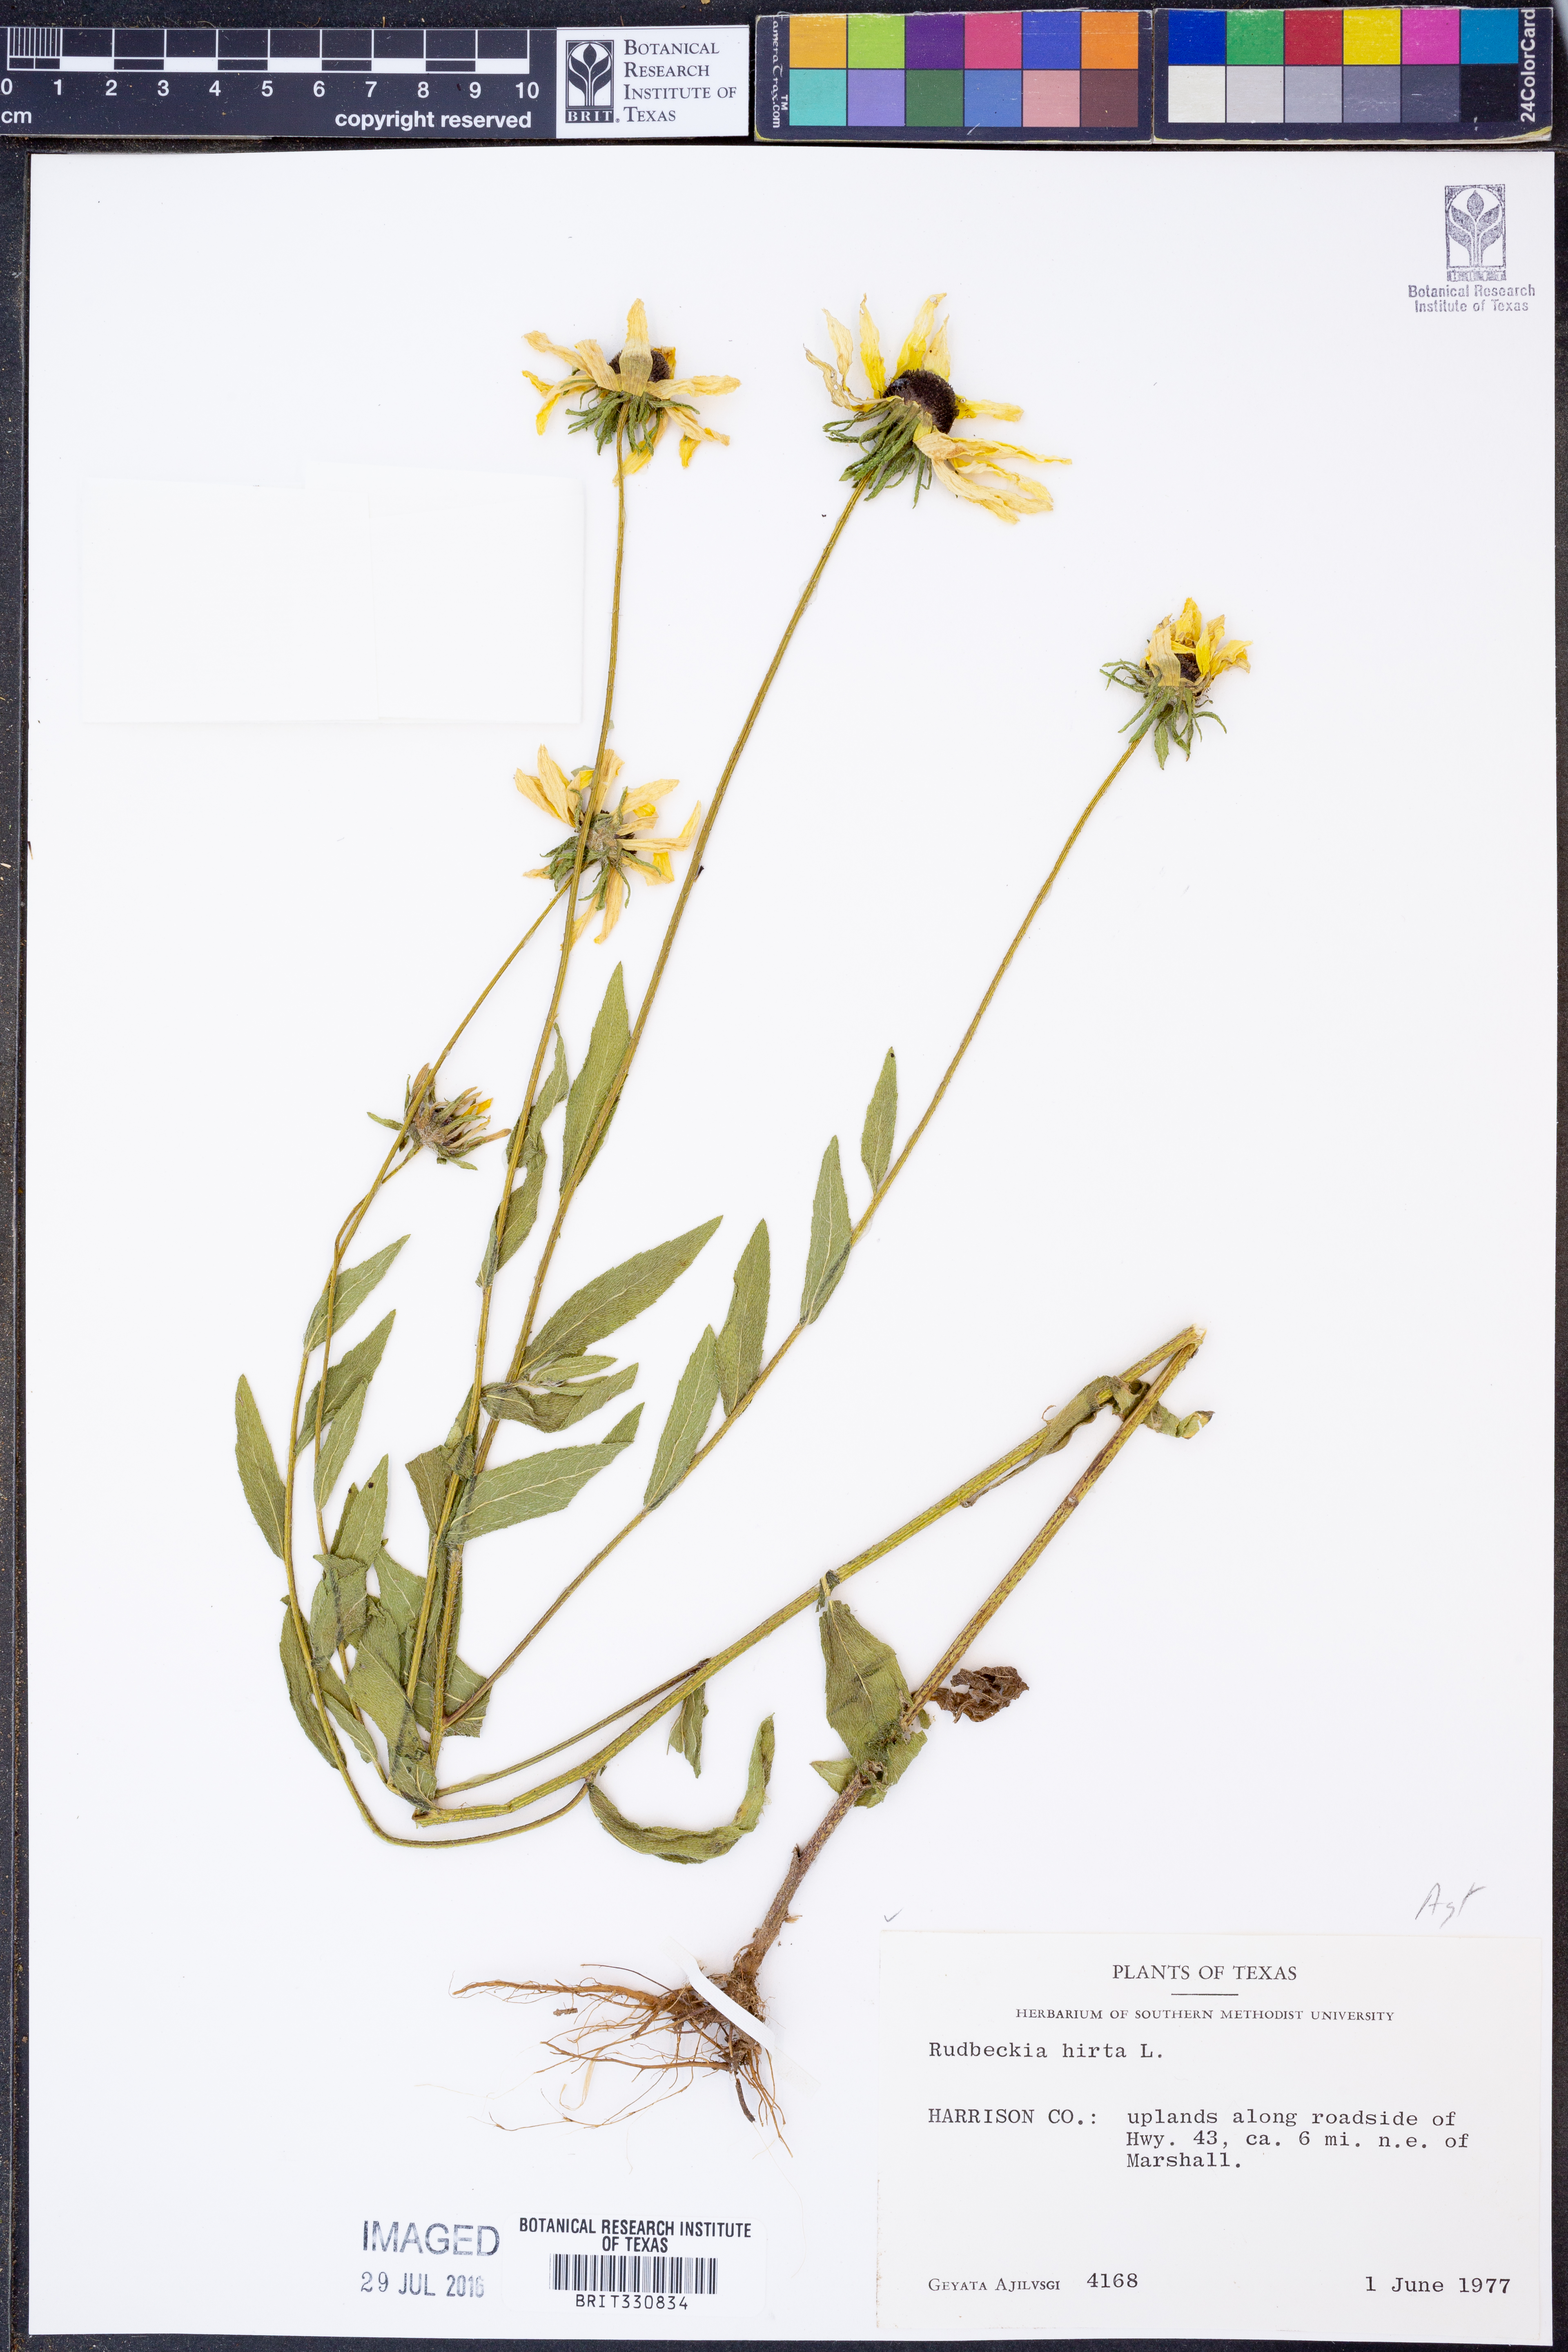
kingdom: Plantae
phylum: Tracheophyta
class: Magnoliopsida
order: Asterales
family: Asteraceae
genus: Rudbeckia
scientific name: Rudbeckia hirta
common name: Black-eyed-susan
